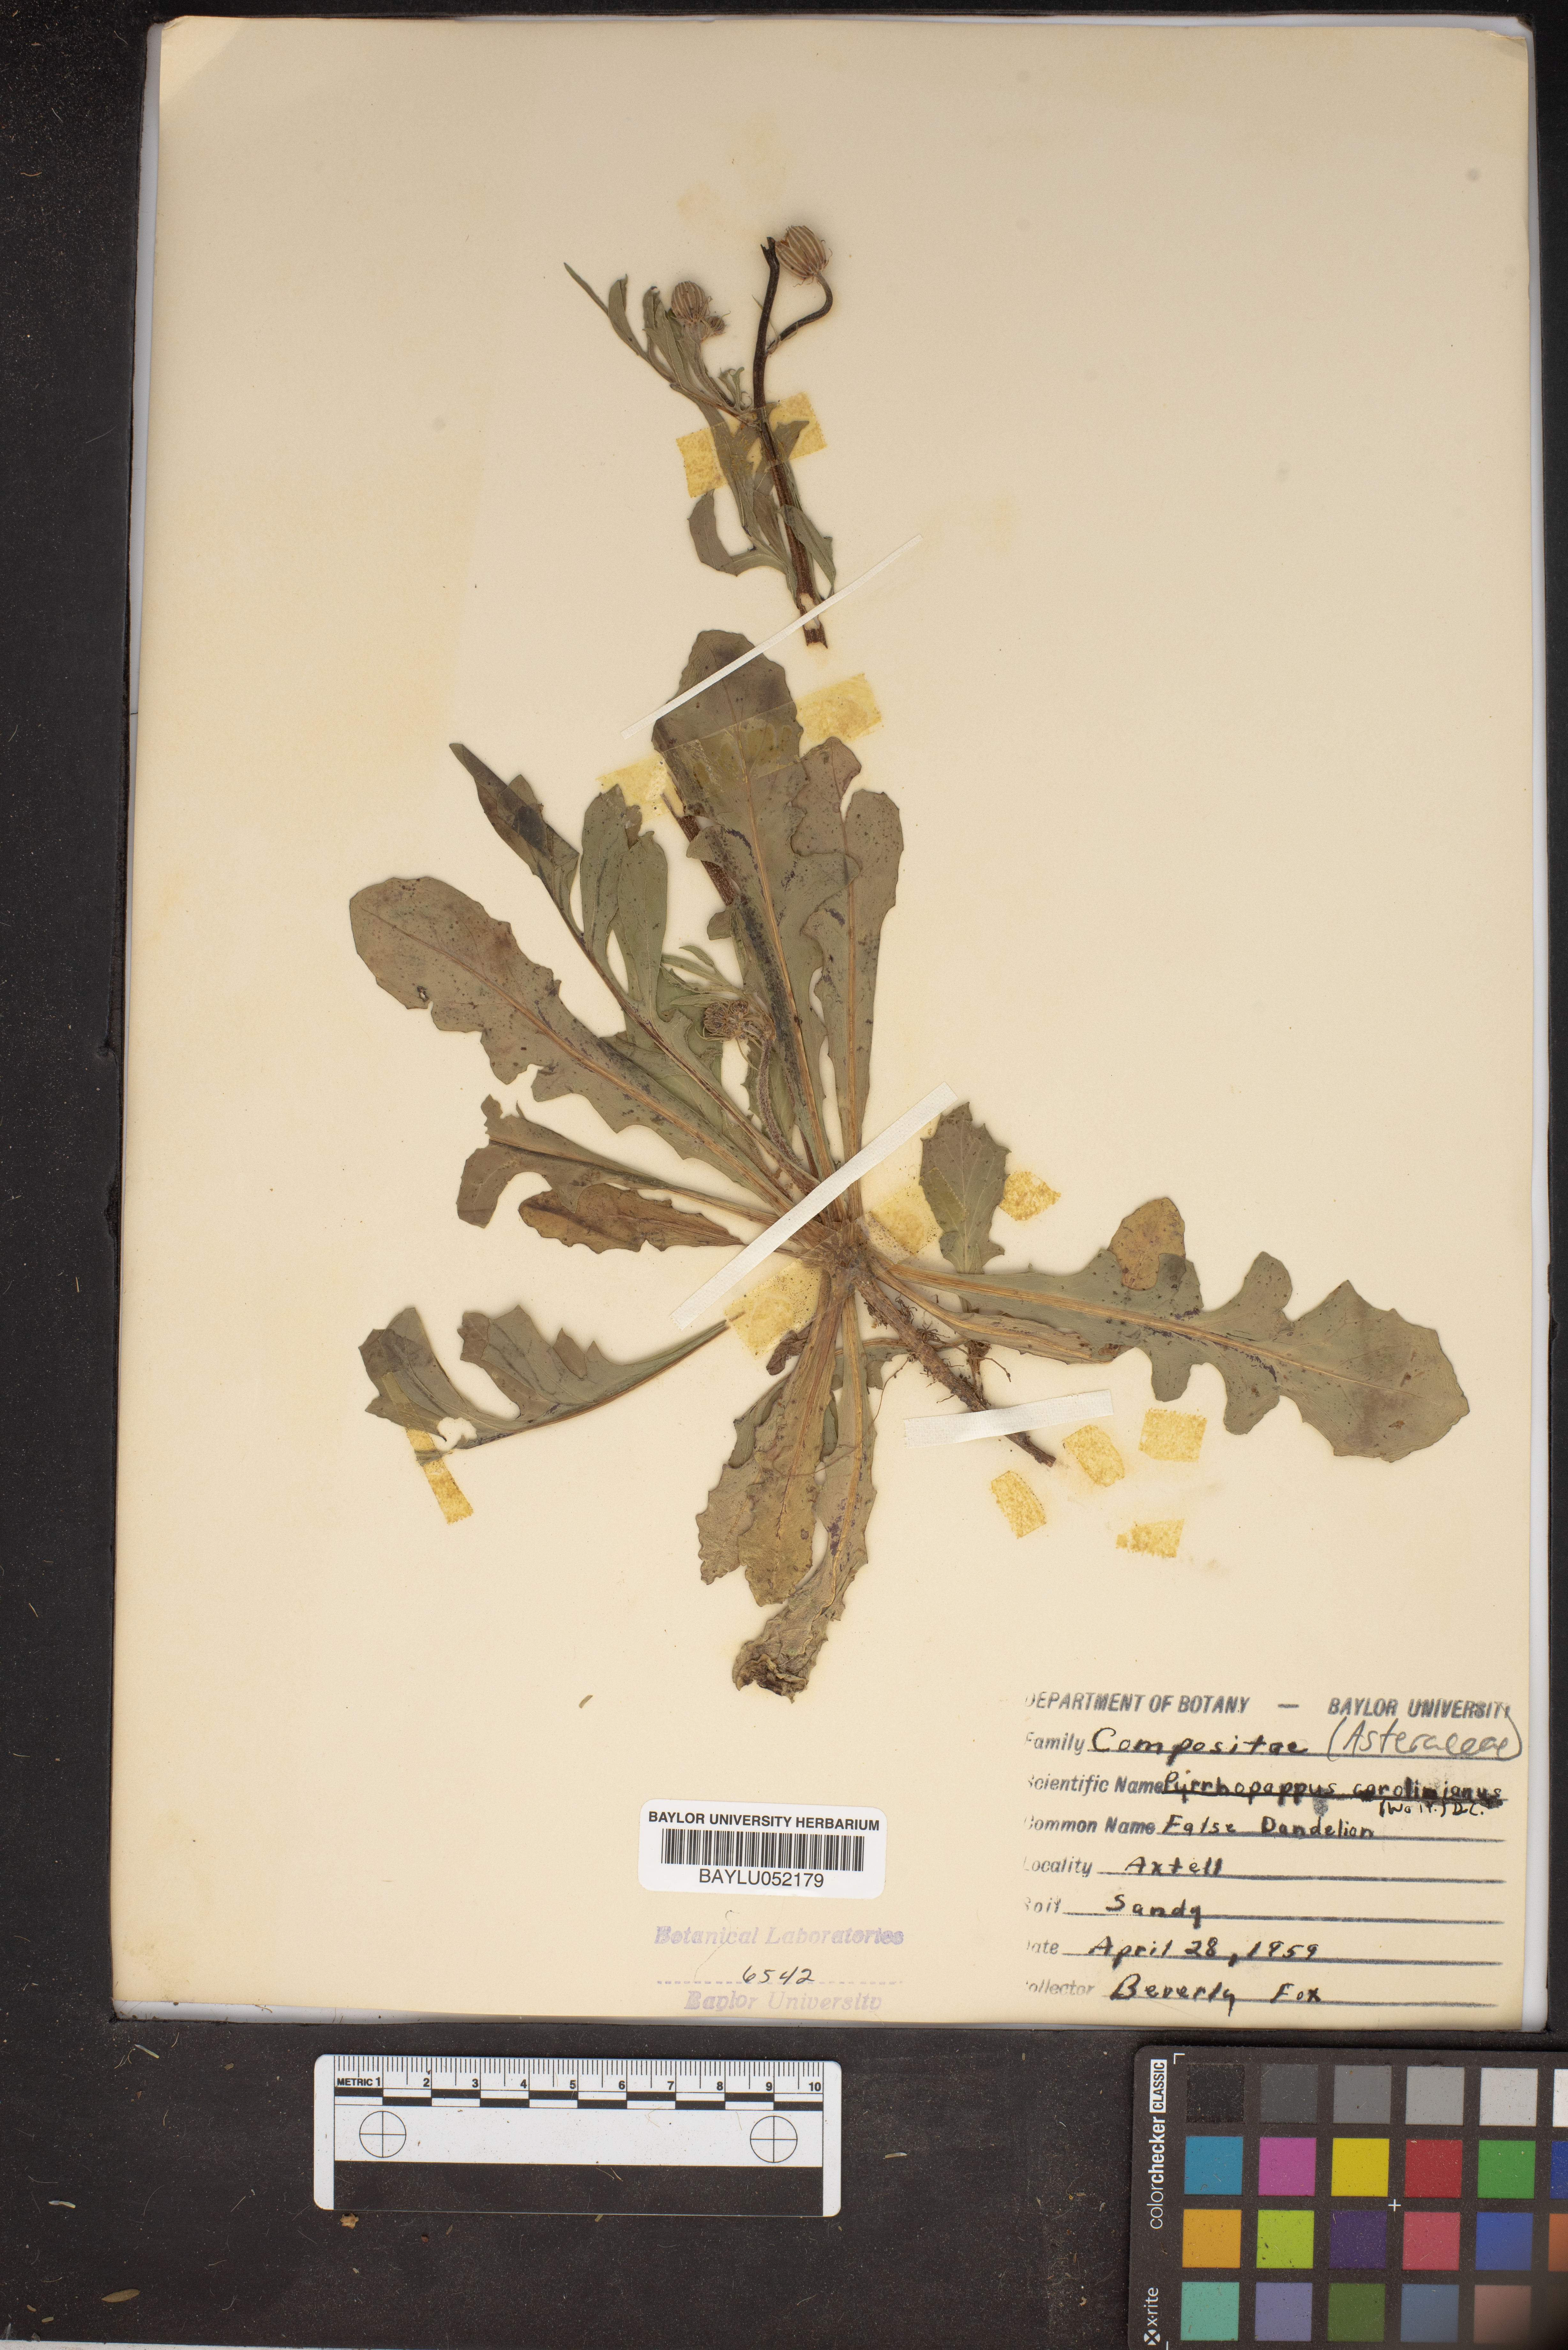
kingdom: Plantae
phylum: Tracheophyta
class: Magnoliopsida
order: Asterales
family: Asteraceae
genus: Pyrrhopappus
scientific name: Pyrrhopappus carolinianus
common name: Carolina desert-chicory
